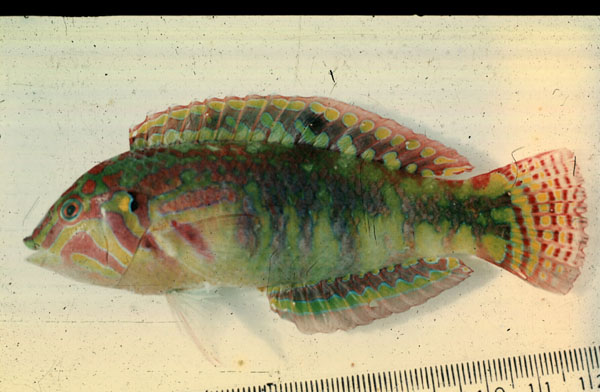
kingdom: Animalia
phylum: Chordata
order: Perciformes
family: Labridae
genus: Halichoeres
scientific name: Halichoeres nebulosus
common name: Clouded wrasse
